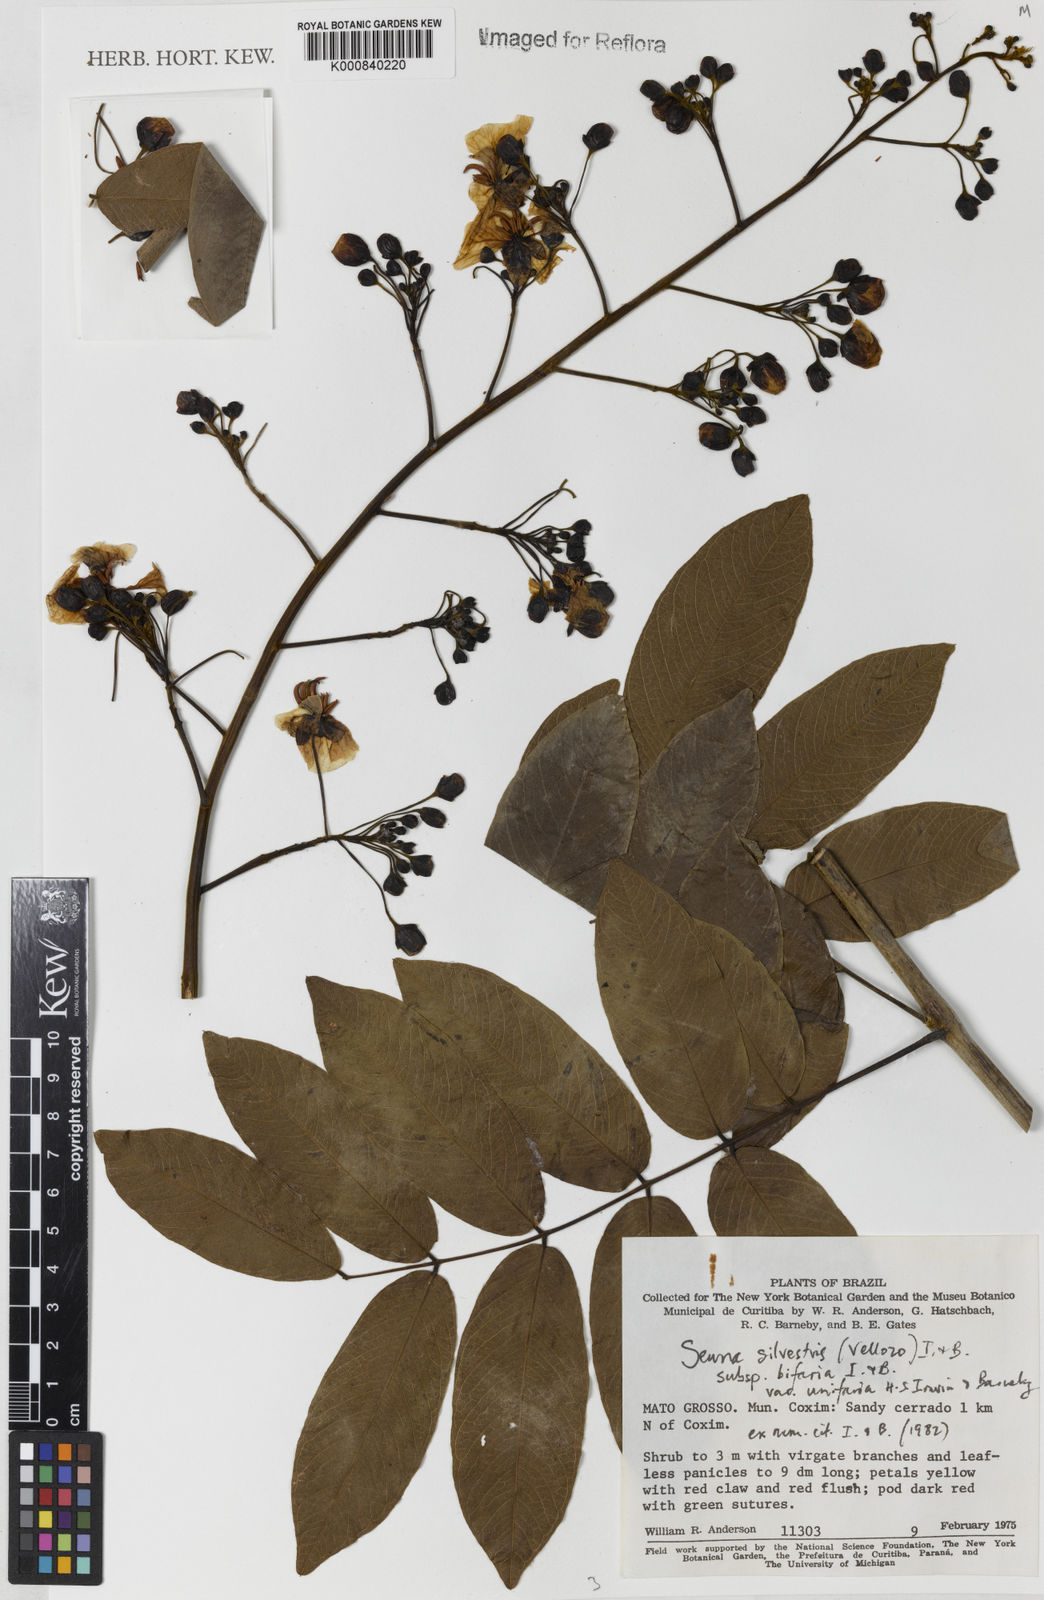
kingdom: Plantae
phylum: Tracheophyta
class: Magnoliopsida
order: Fabales
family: Fabaceae
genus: Senna
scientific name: Senna silvestris
